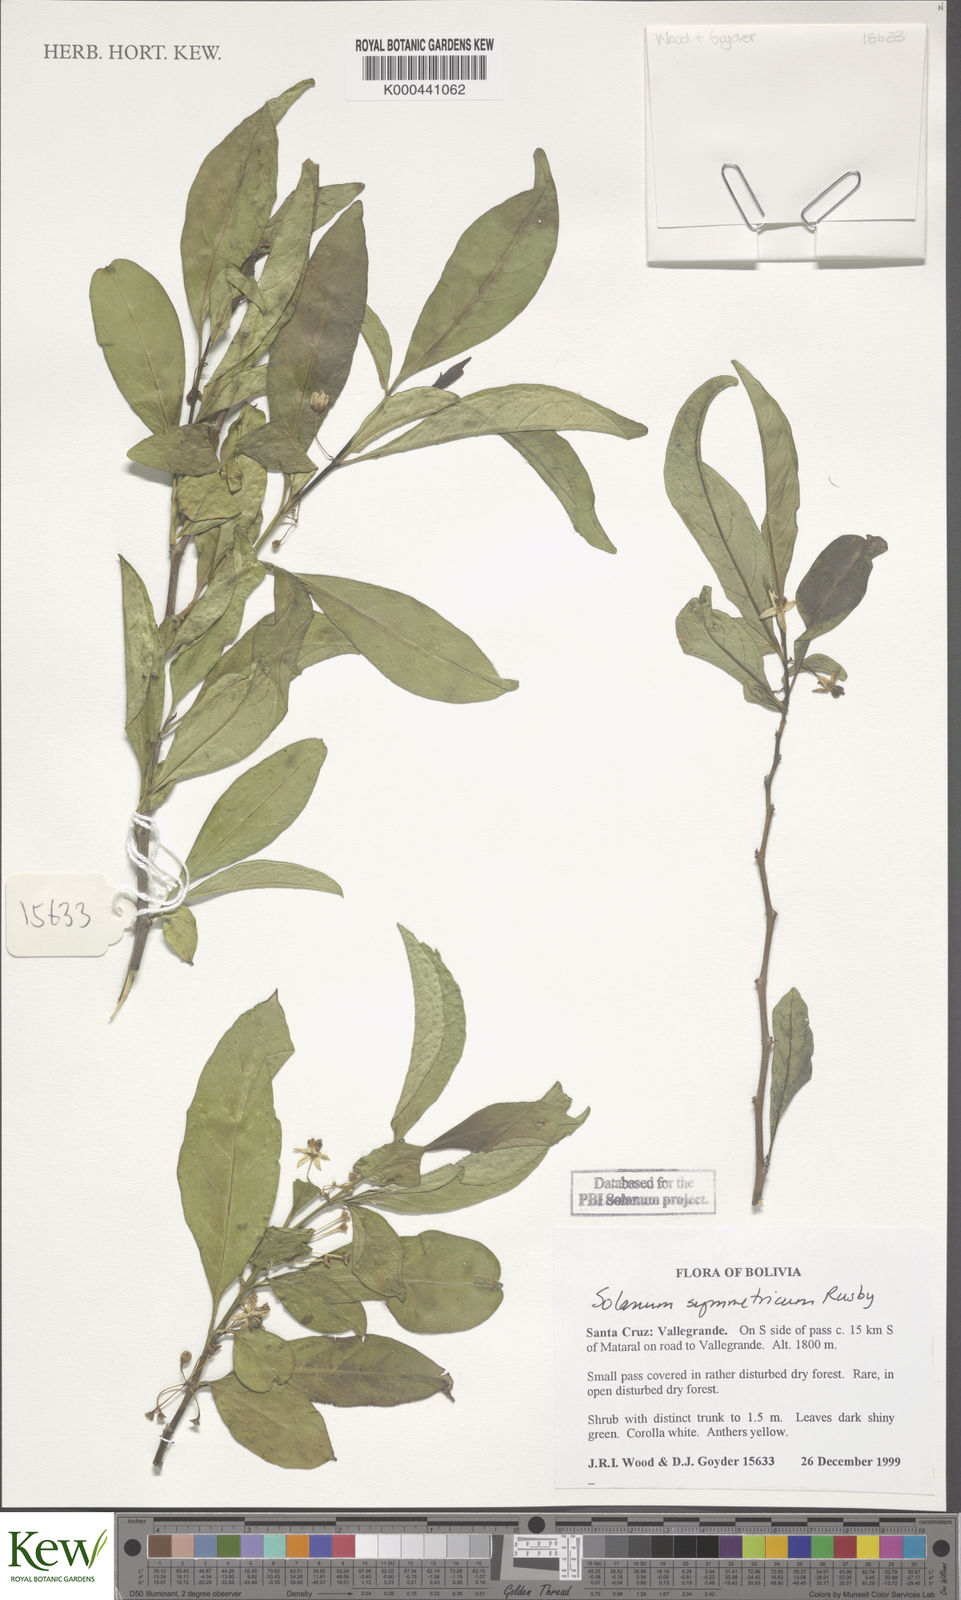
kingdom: Plantae
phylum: Tracheophyta
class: Magnoliopsida
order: Solanales
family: Solanaceae
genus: Solanum
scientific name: Solanum symmetricum
